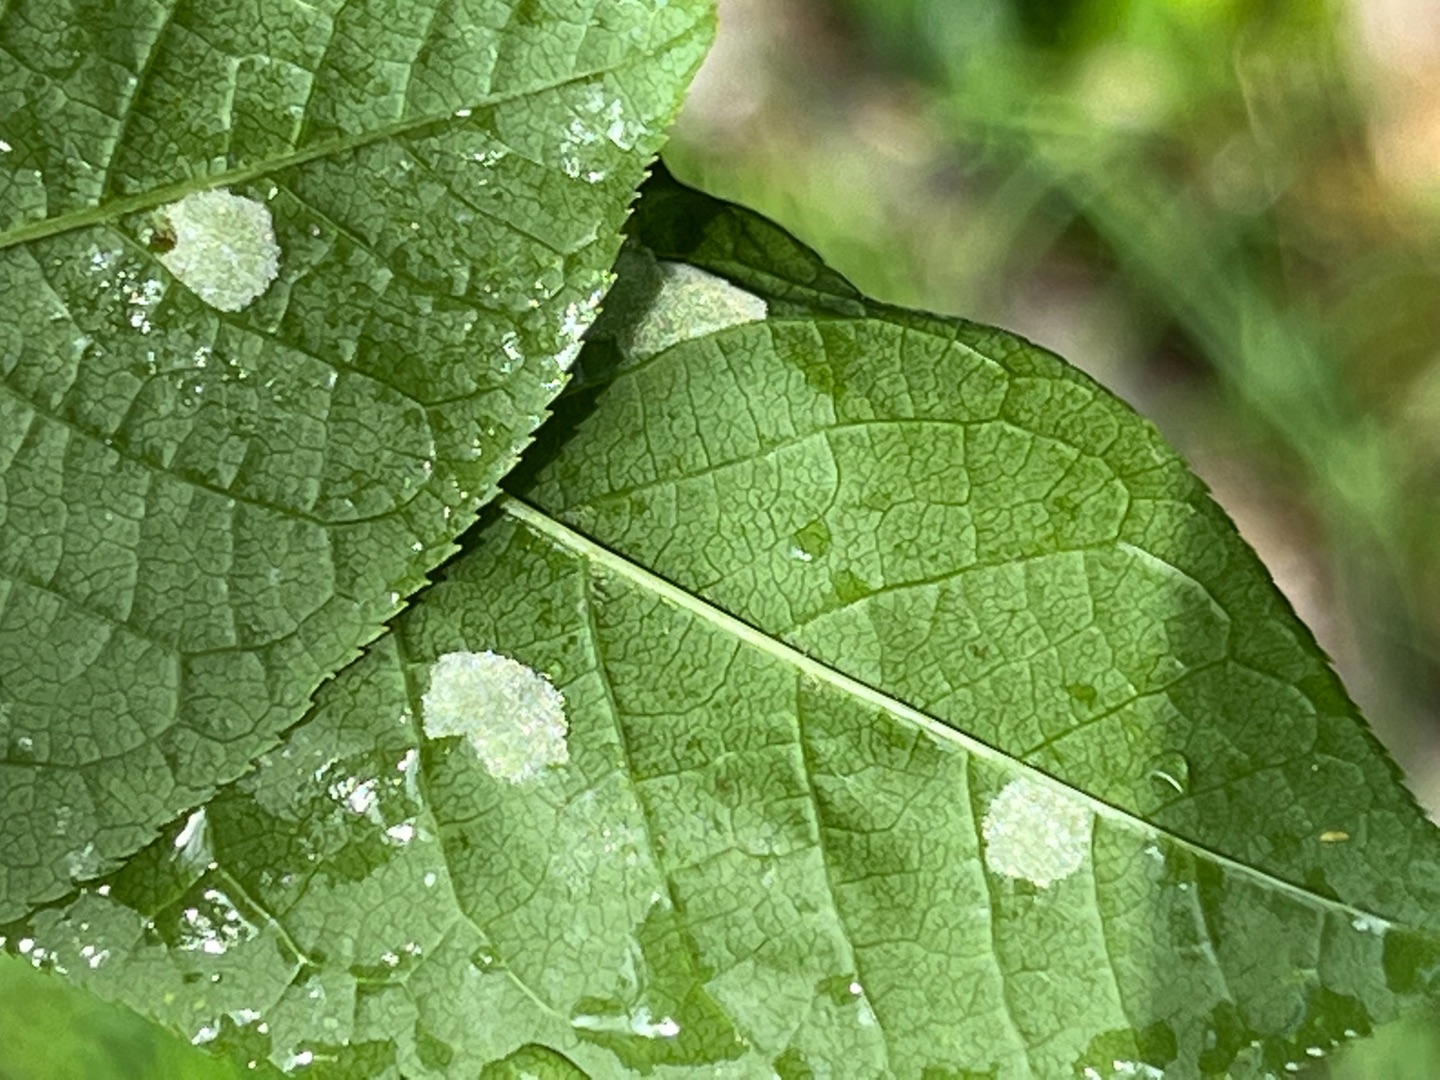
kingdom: Animalia
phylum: Arthropoda
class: Arachnida
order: Trombidiformes
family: Eriophyidae
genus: Eriophyes
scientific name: Eriophyes distinguendus
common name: Hægfiltgalmide
